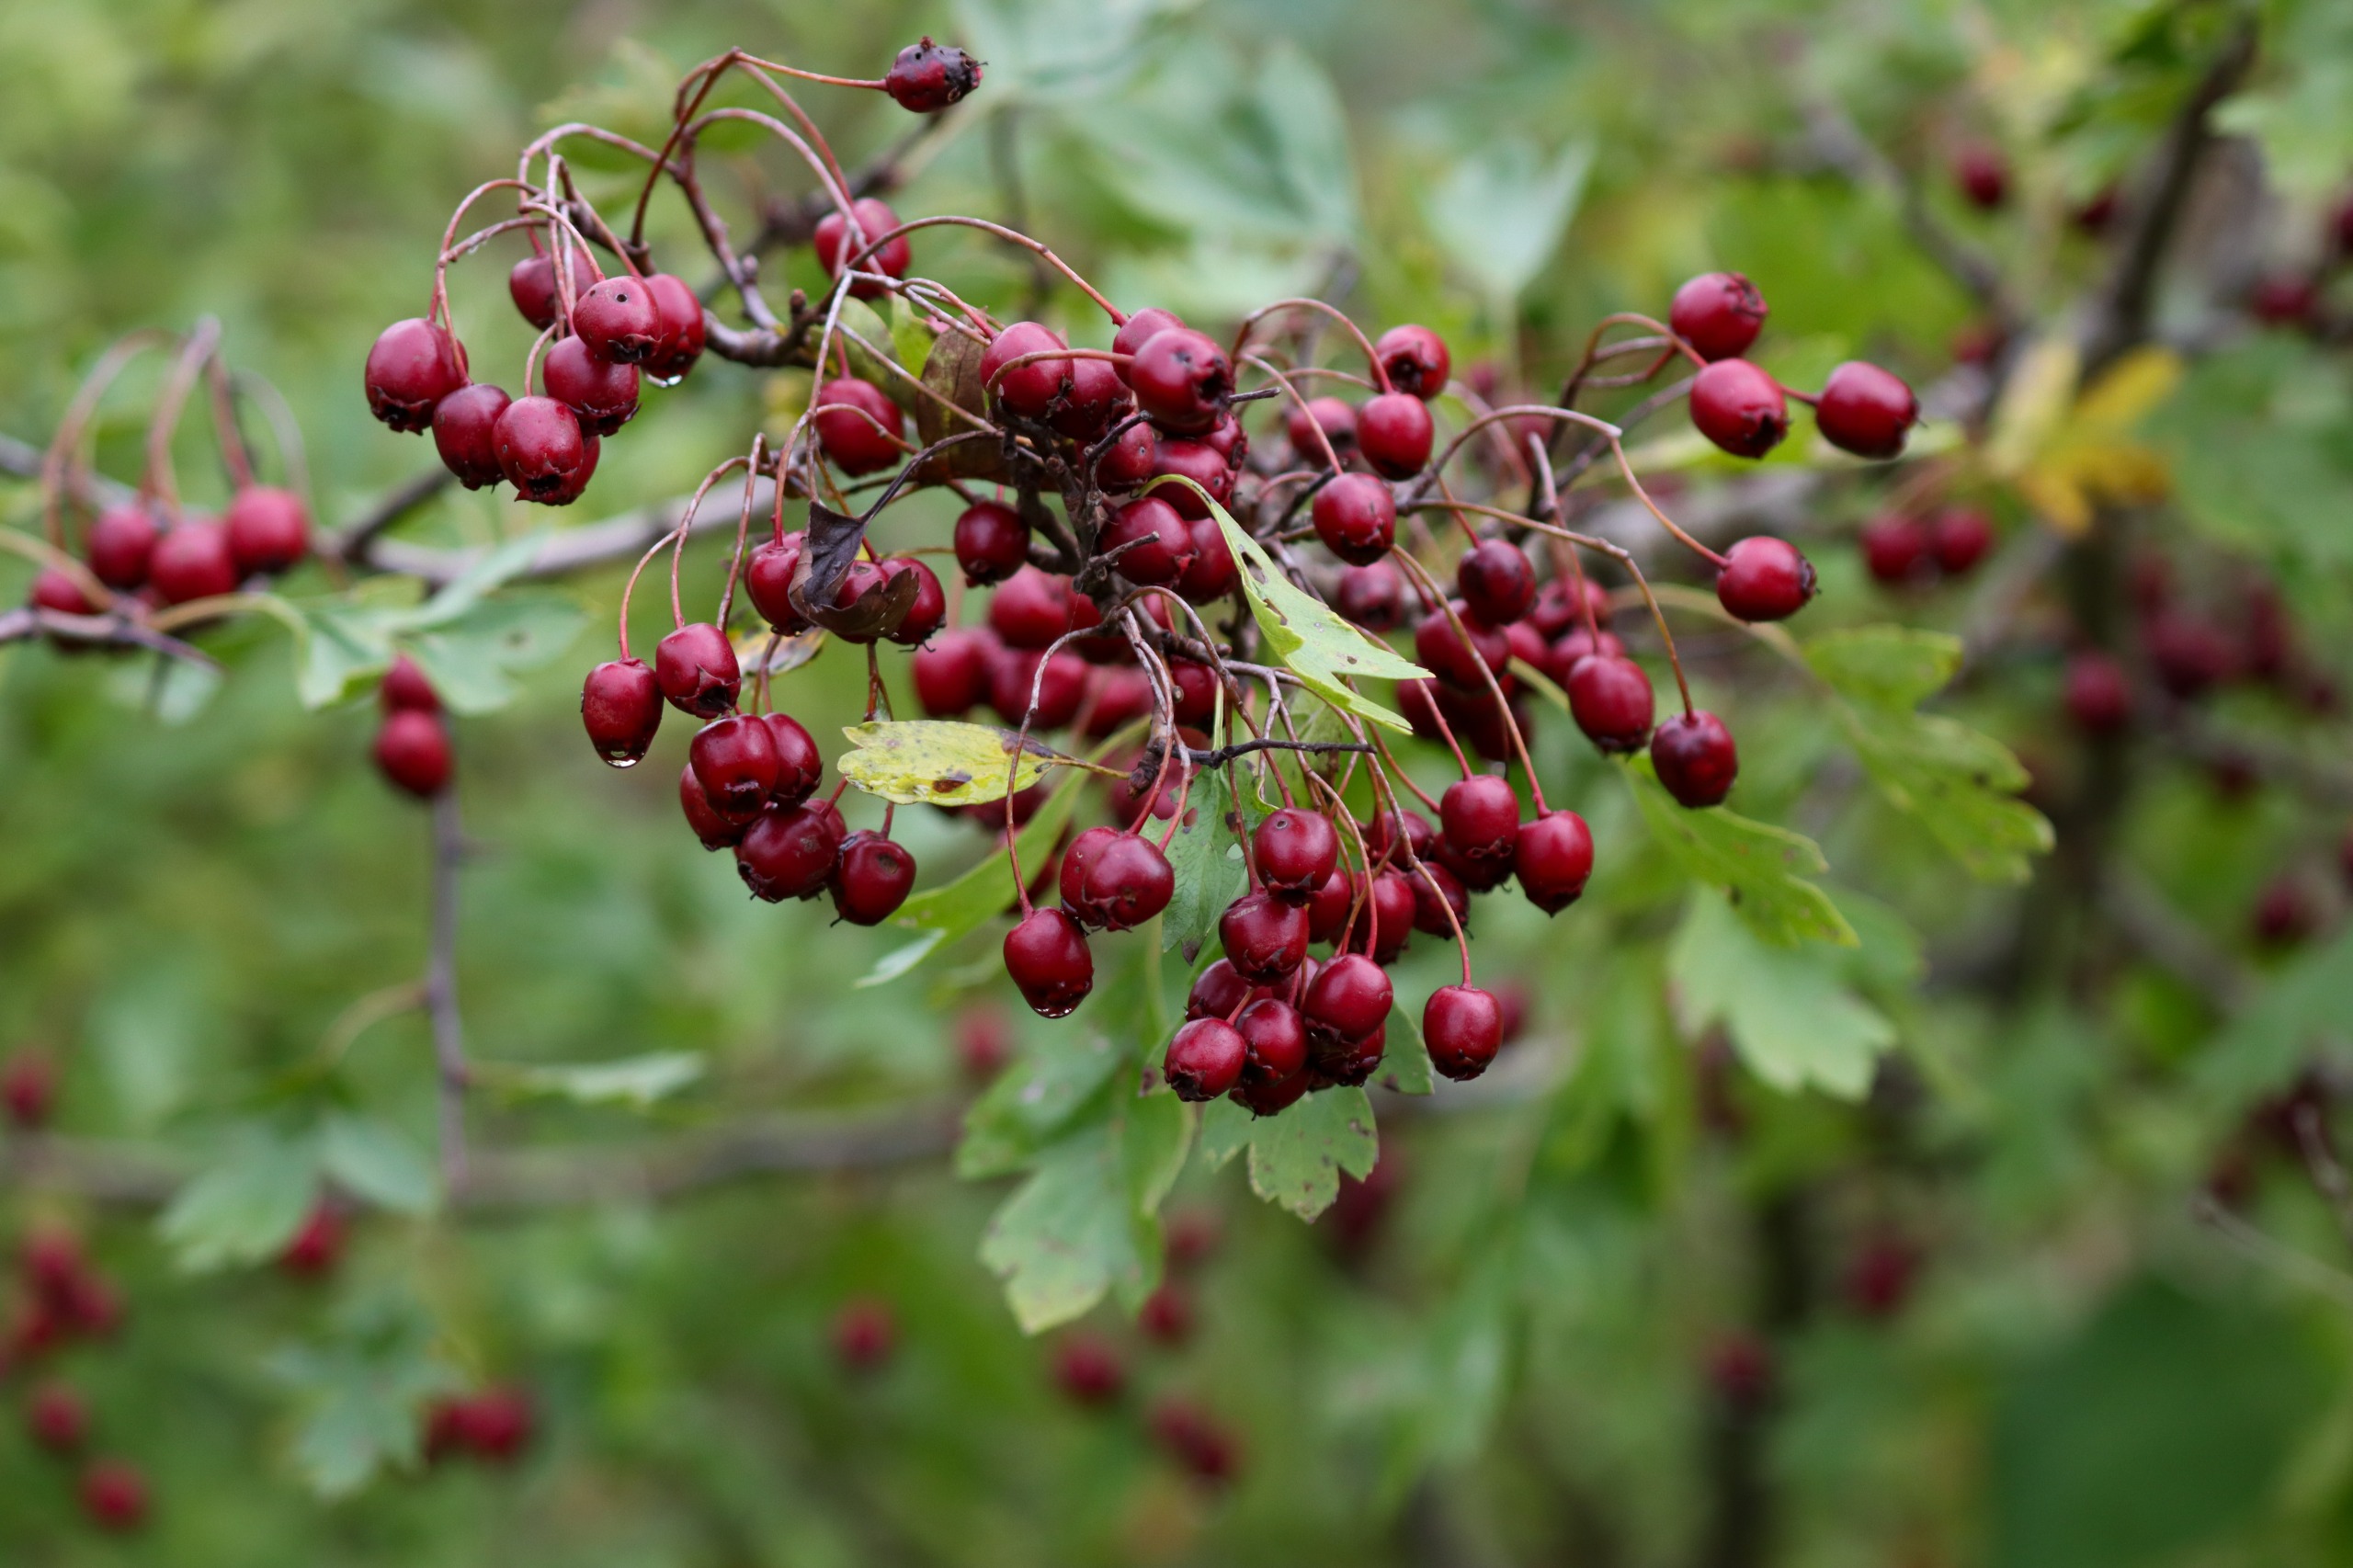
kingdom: Plantae
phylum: Tracheophyta
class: Magnoliopsida
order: Rosales
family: Rosaceae
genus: Crataegus
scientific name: Crataegus monogyna
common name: Engriflet hvidtjørn
